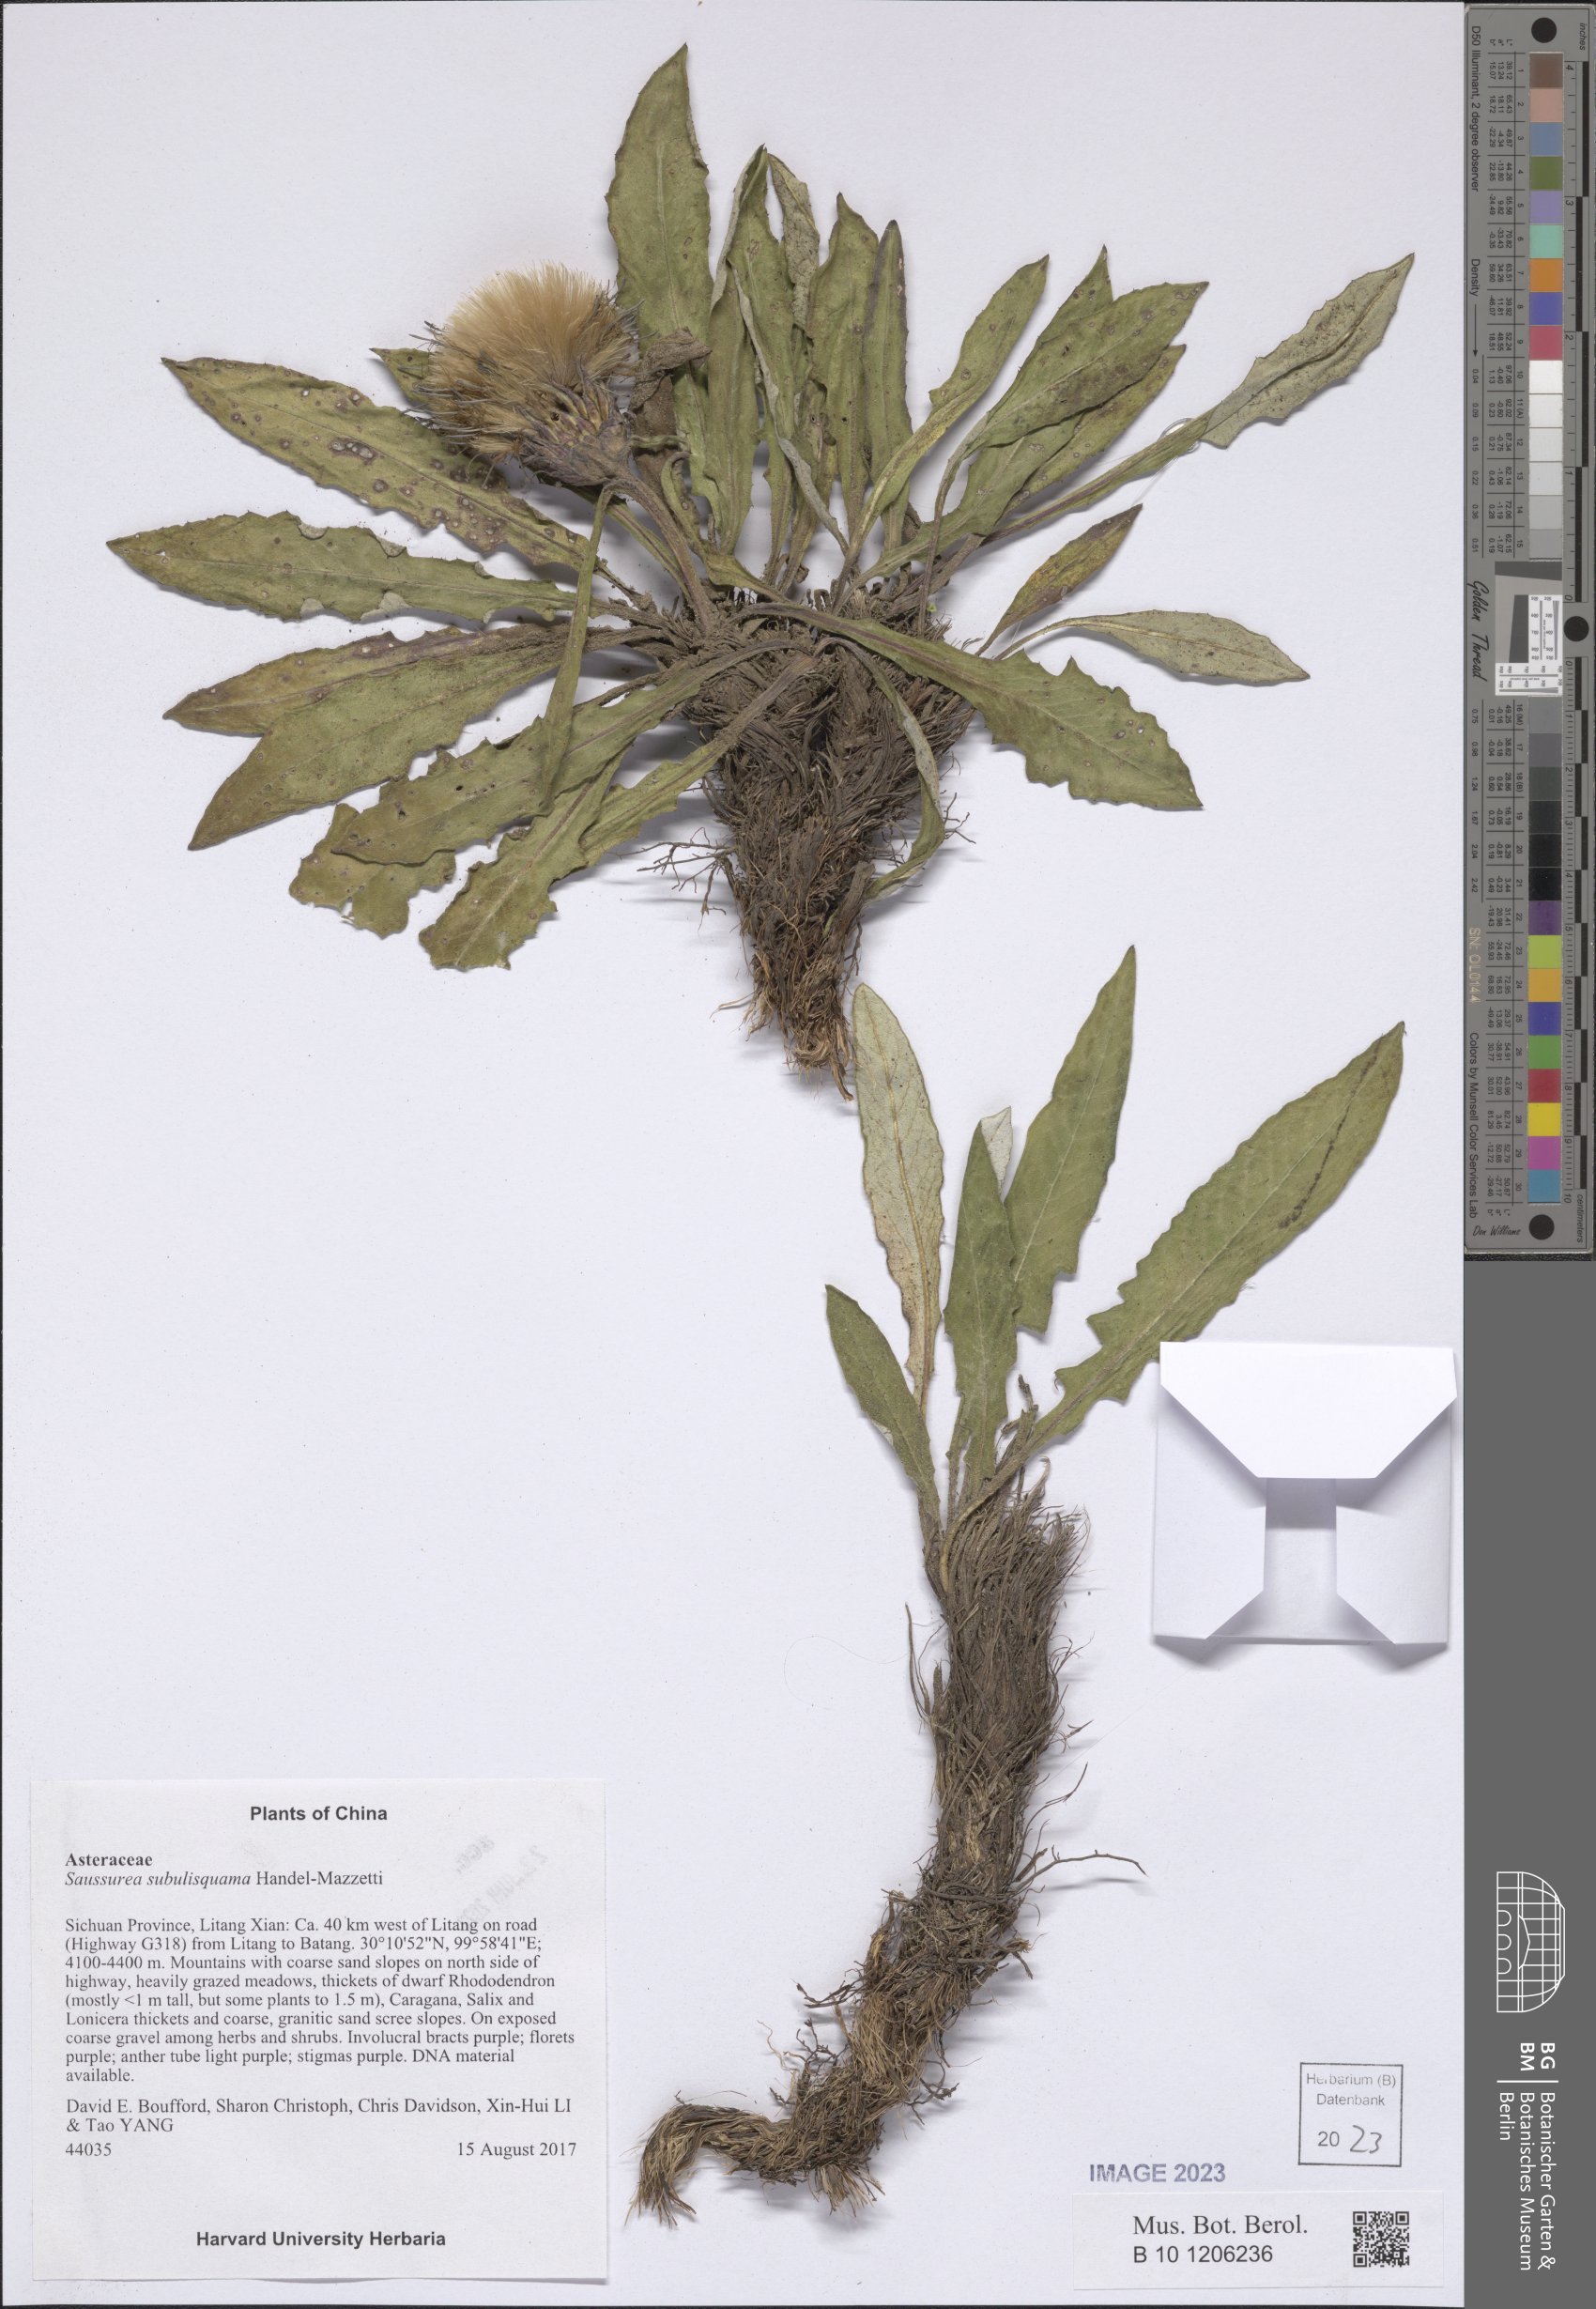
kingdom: Plantae
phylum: Tracheophyta
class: Magnoliopsida
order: Asterales
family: Asteraceae
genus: Saussurea
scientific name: Saussurea subulisquama
